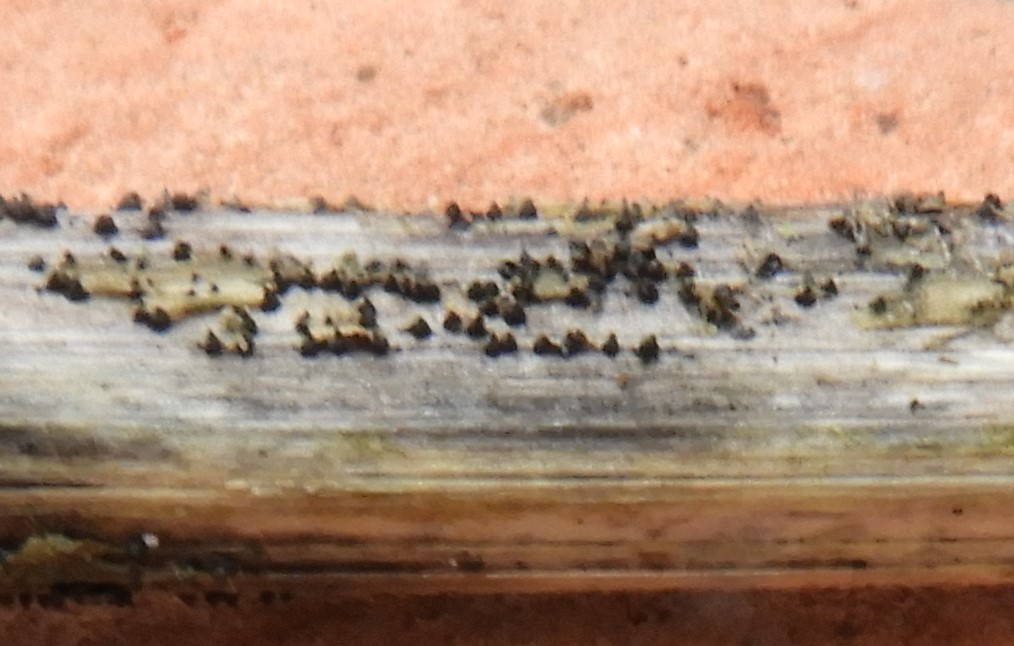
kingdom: Fungi
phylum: Ascomycota
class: Dothideomycetes
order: Pleosporales
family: Leptosphaeriaceae
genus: Leptosphaeria
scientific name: Leptosphaeria
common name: kulkegle
